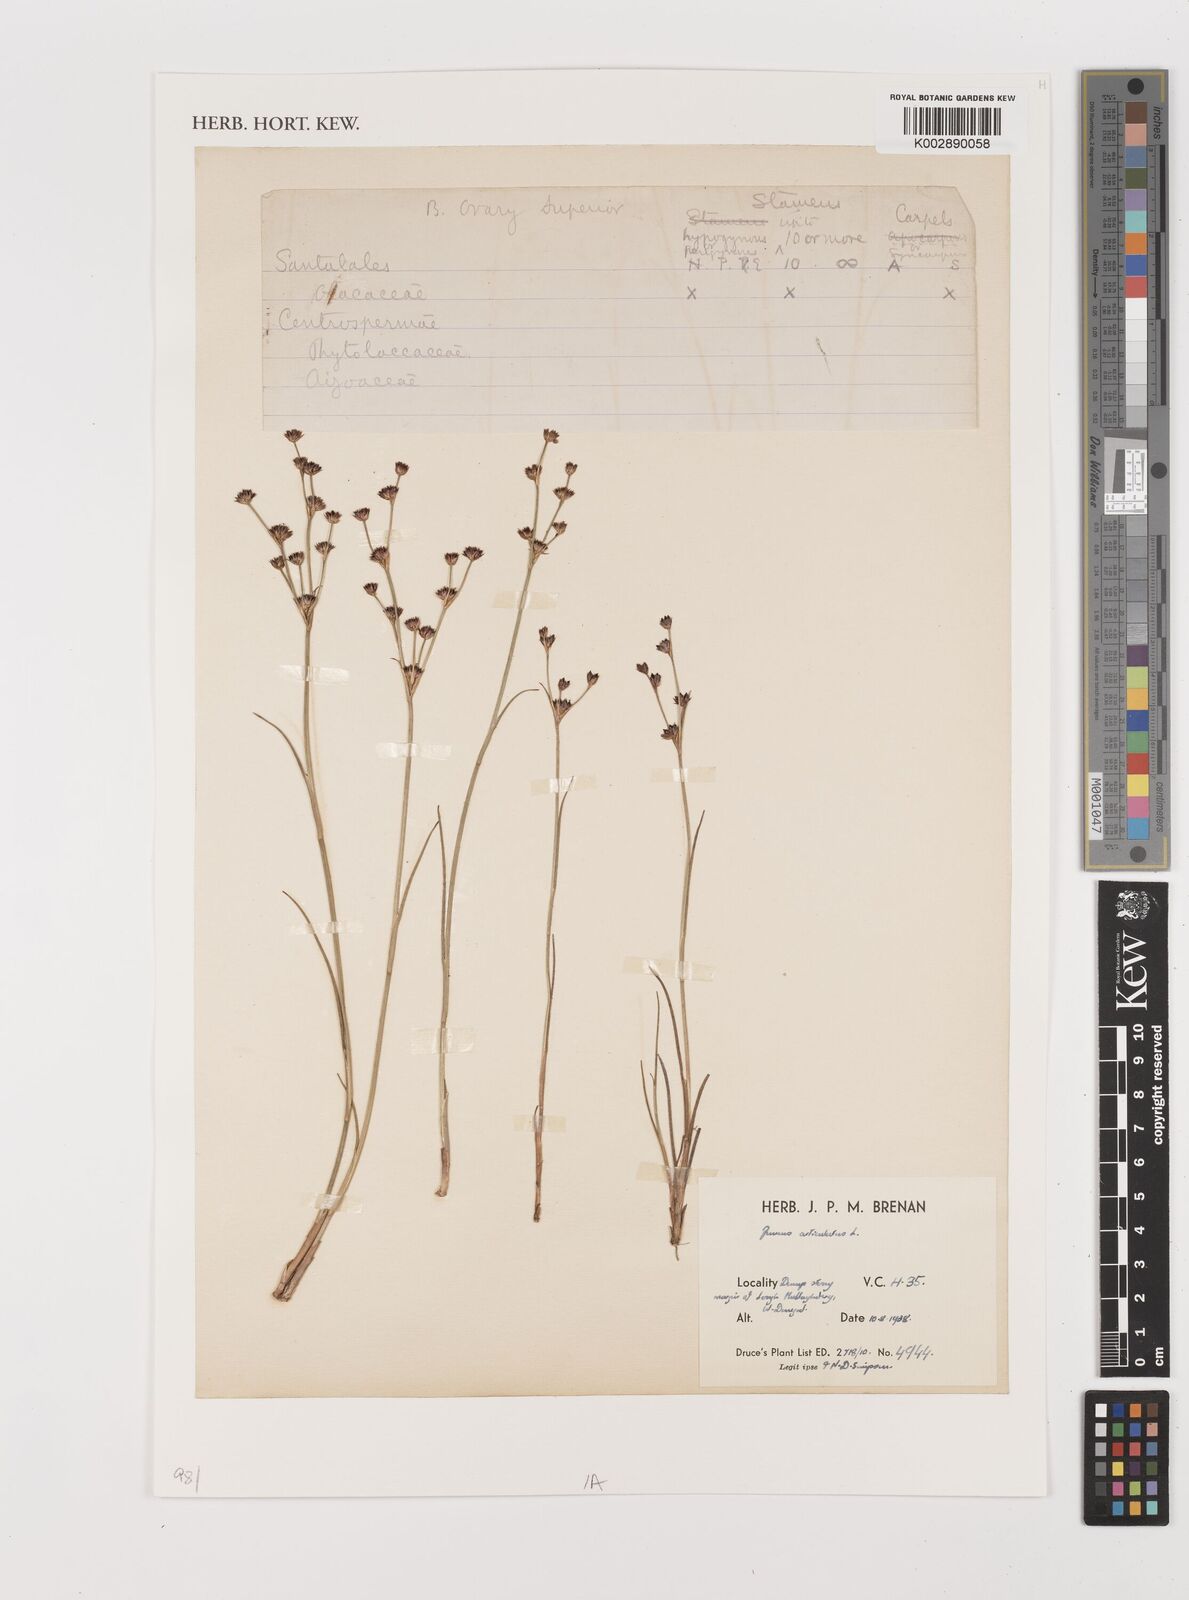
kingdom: Plantae
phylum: Tracheophyta
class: Liliopsida
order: Poales
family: Juncaceae
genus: Juncus
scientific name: Juncus articulatus
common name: Jointed rush
